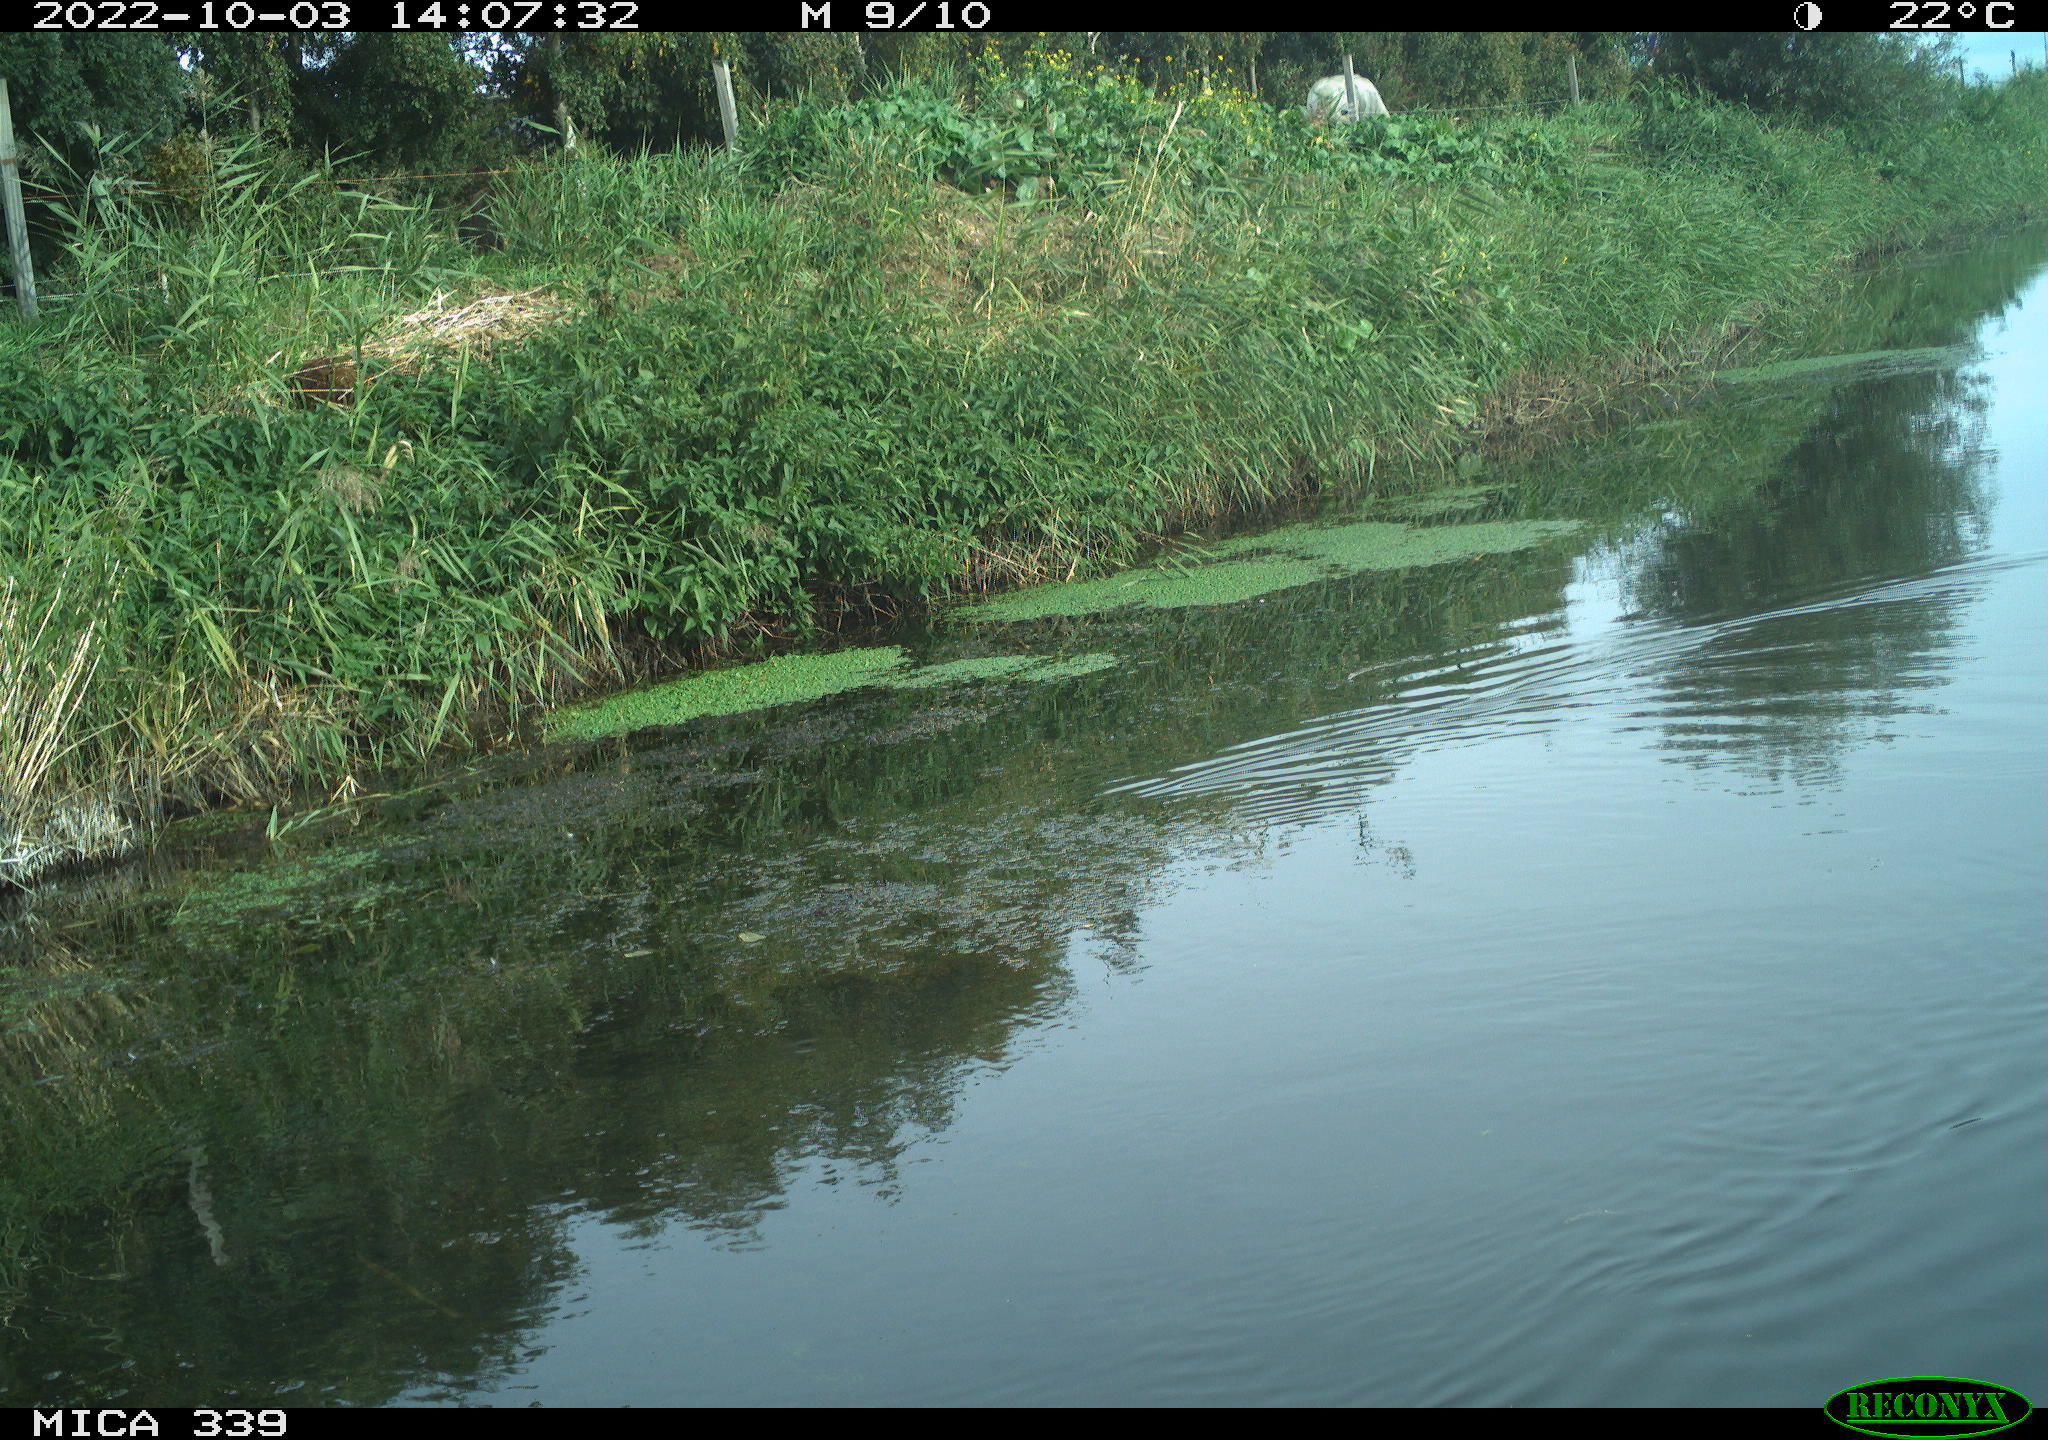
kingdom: Animalia
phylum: Chordata
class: Aves
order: Anseriformes
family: Anatidae
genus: Anas
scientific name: Anas platyrhynchos
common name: Mallard
